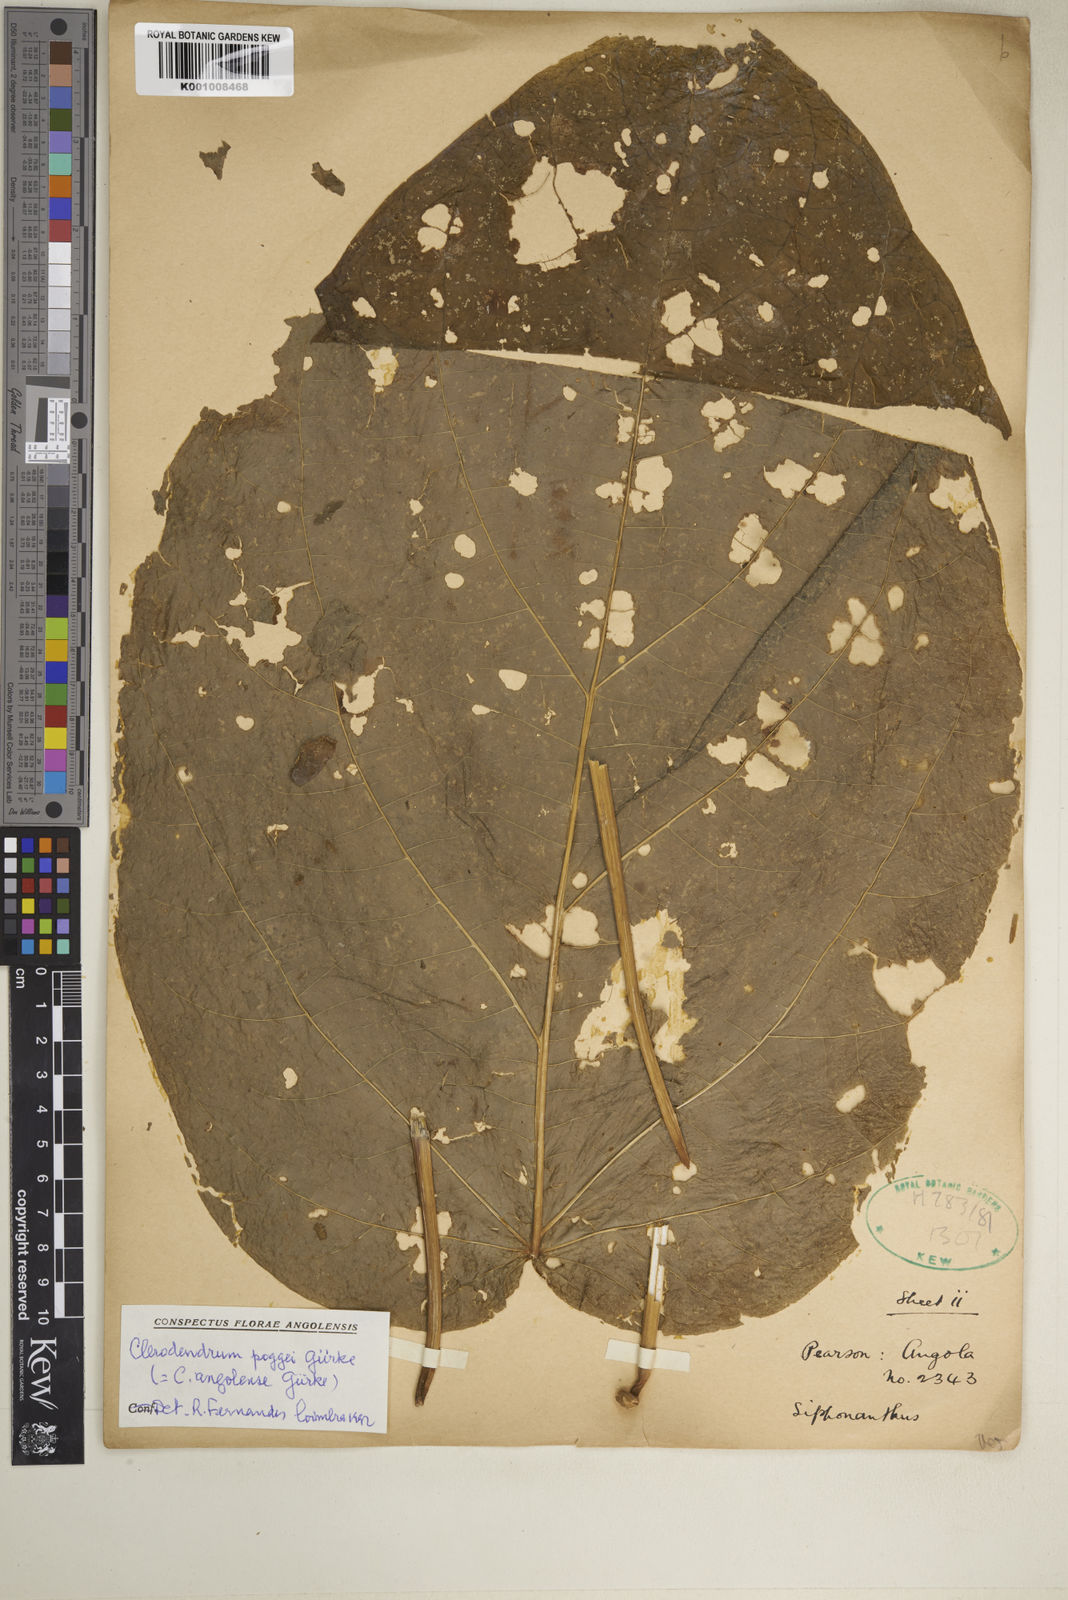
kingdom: Plantae
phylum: Tracheophyta
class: Magnoliopsida
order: Lamiales
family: Lamiaceae
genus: Clerodendrum
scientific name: Clerodendrum
